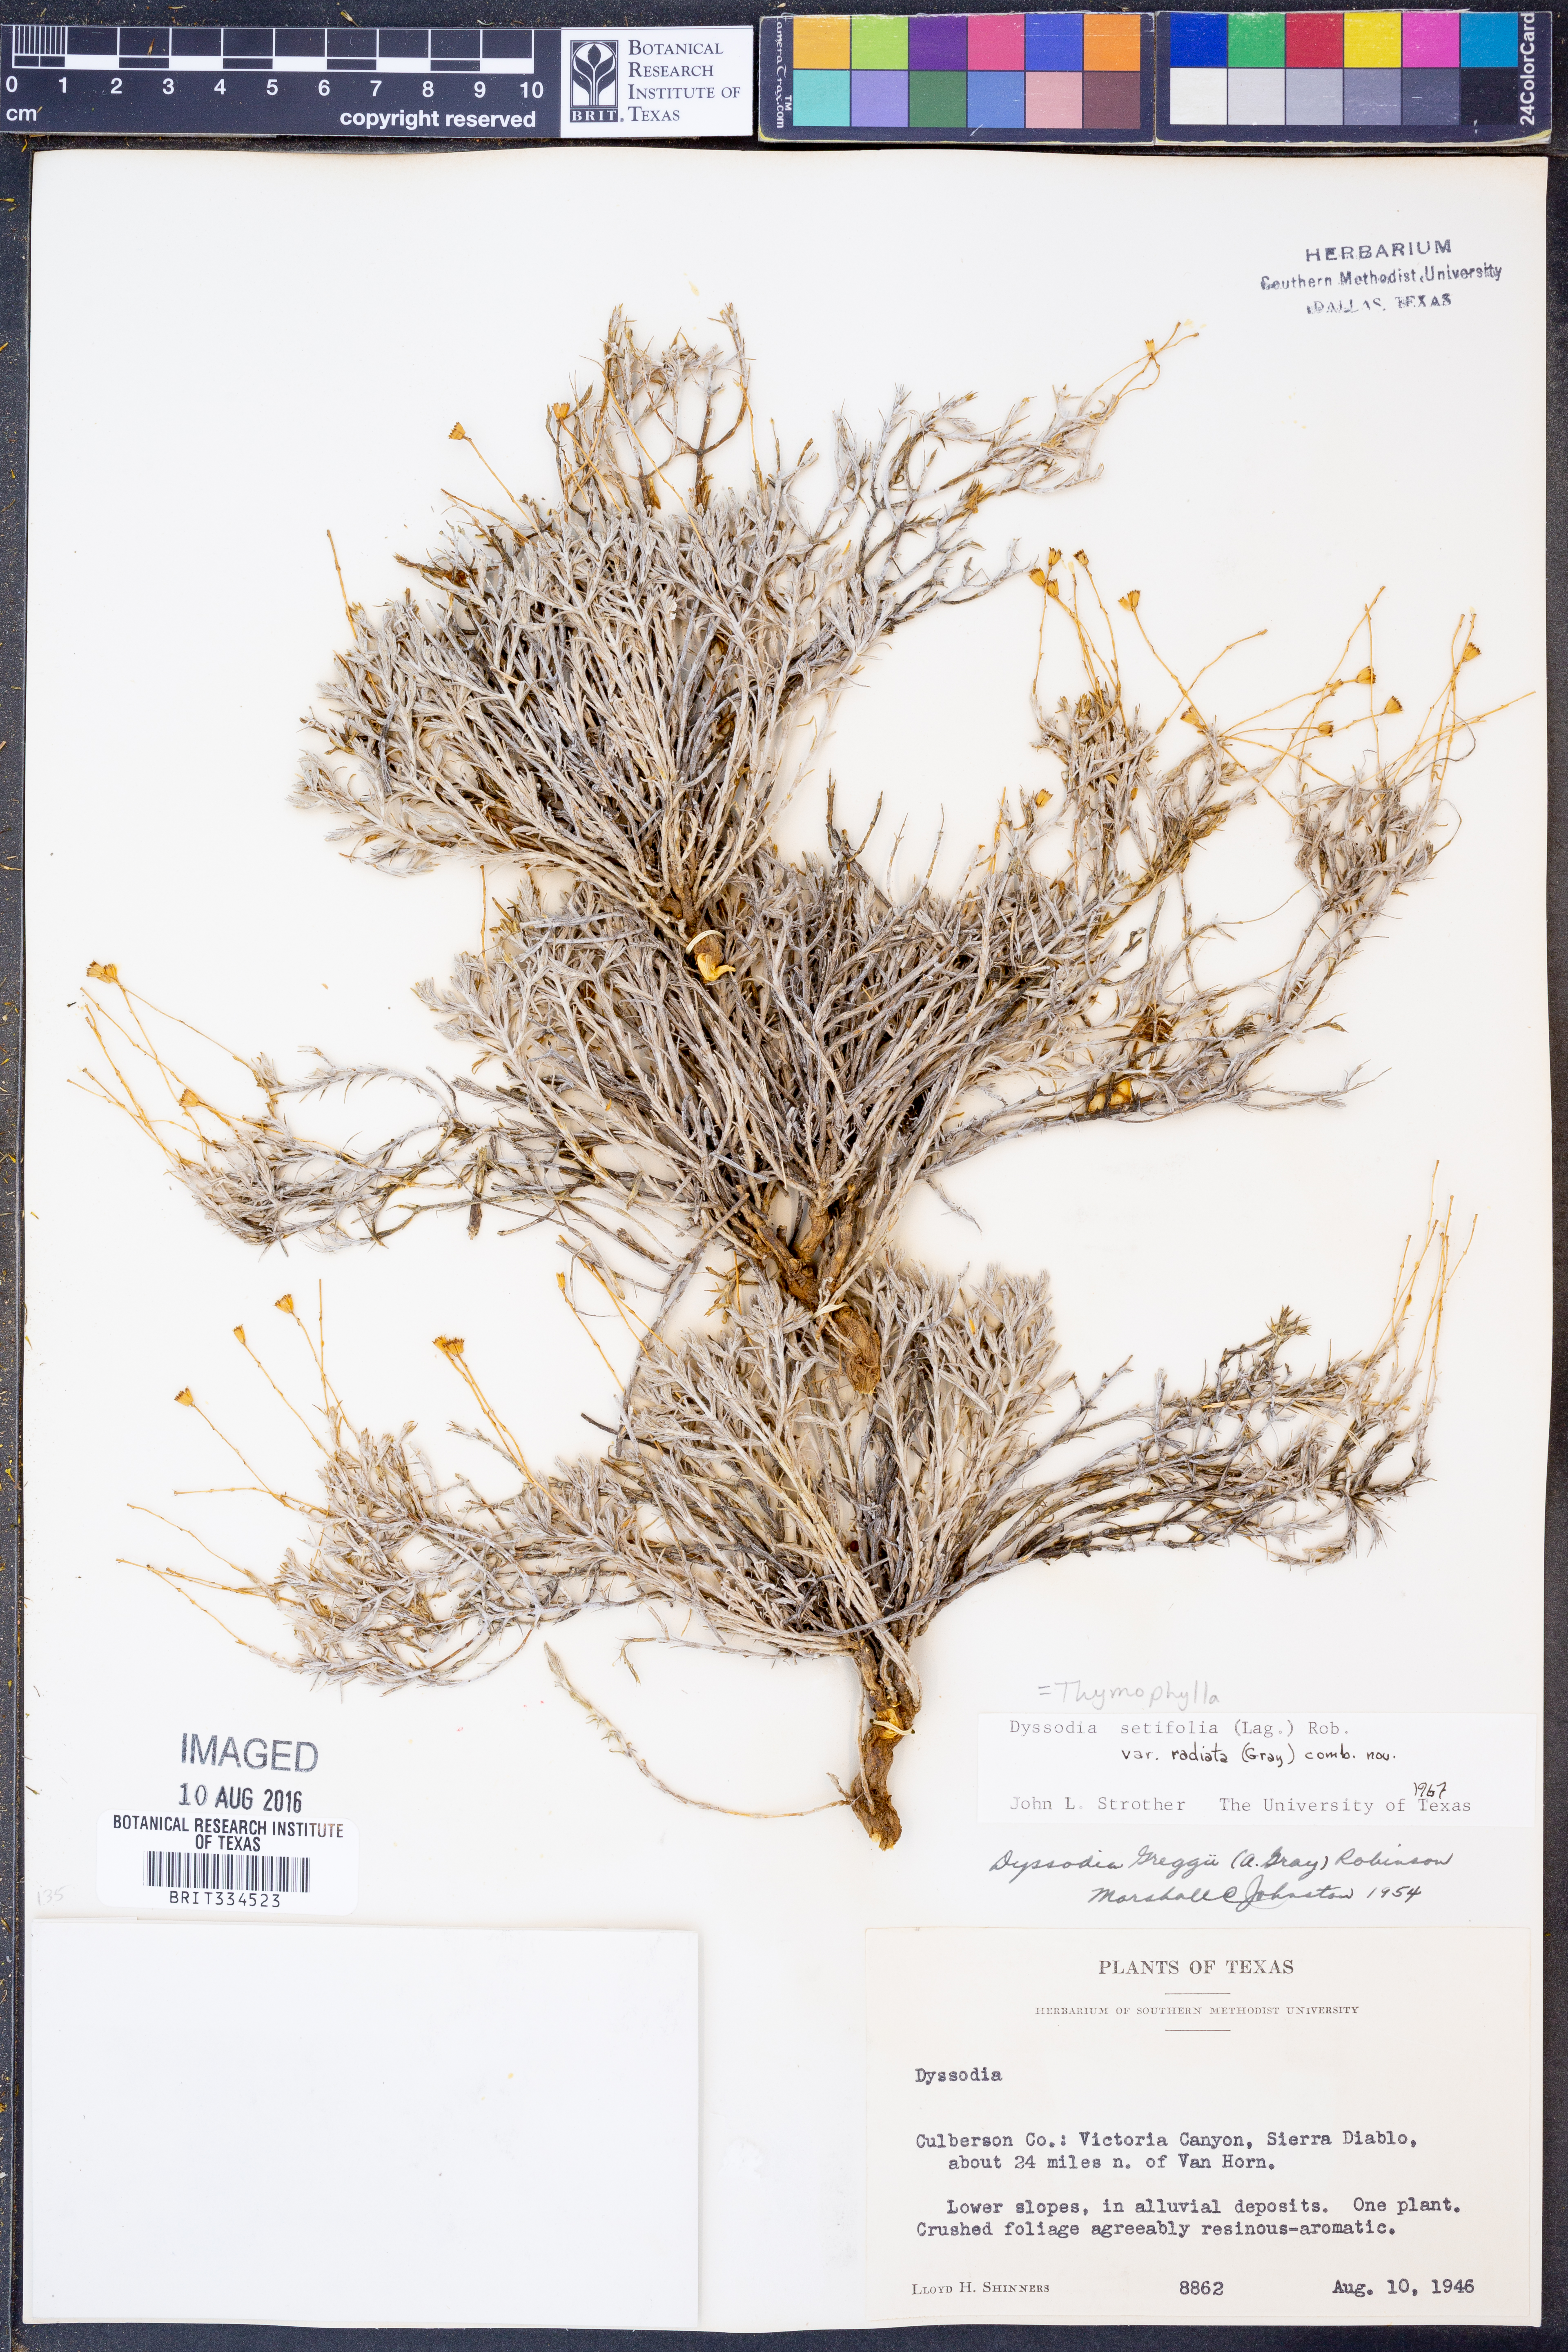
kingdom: Plantae
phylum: Tracheophyta
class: Magnoliopsida
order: Asterales
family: Asteraceae
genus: Thymophylla
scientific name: Thymophylla setifolia
